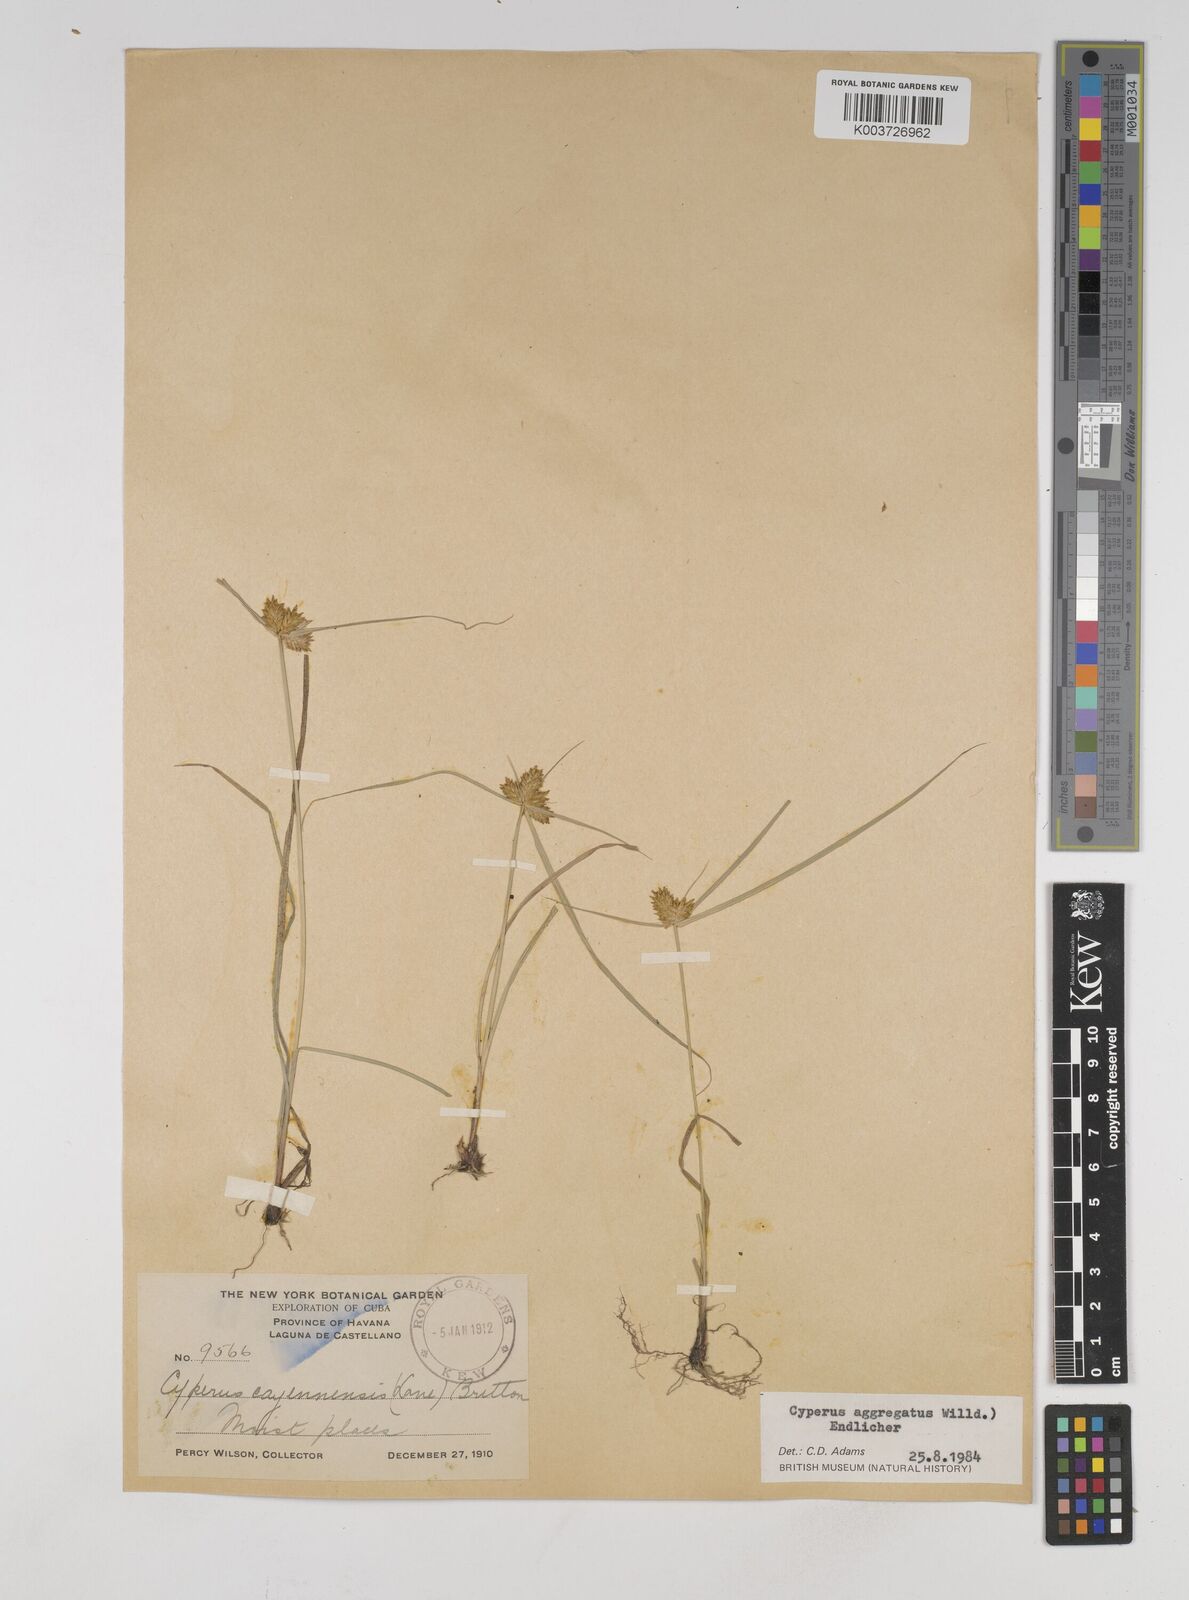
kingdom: Plantae
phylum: Tracheophyta
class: Liliopsida
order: Poales
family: Cyperaceae
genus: Cyperus
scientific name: Cyperus aggregatus
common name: Inflatedscale flatsedge
